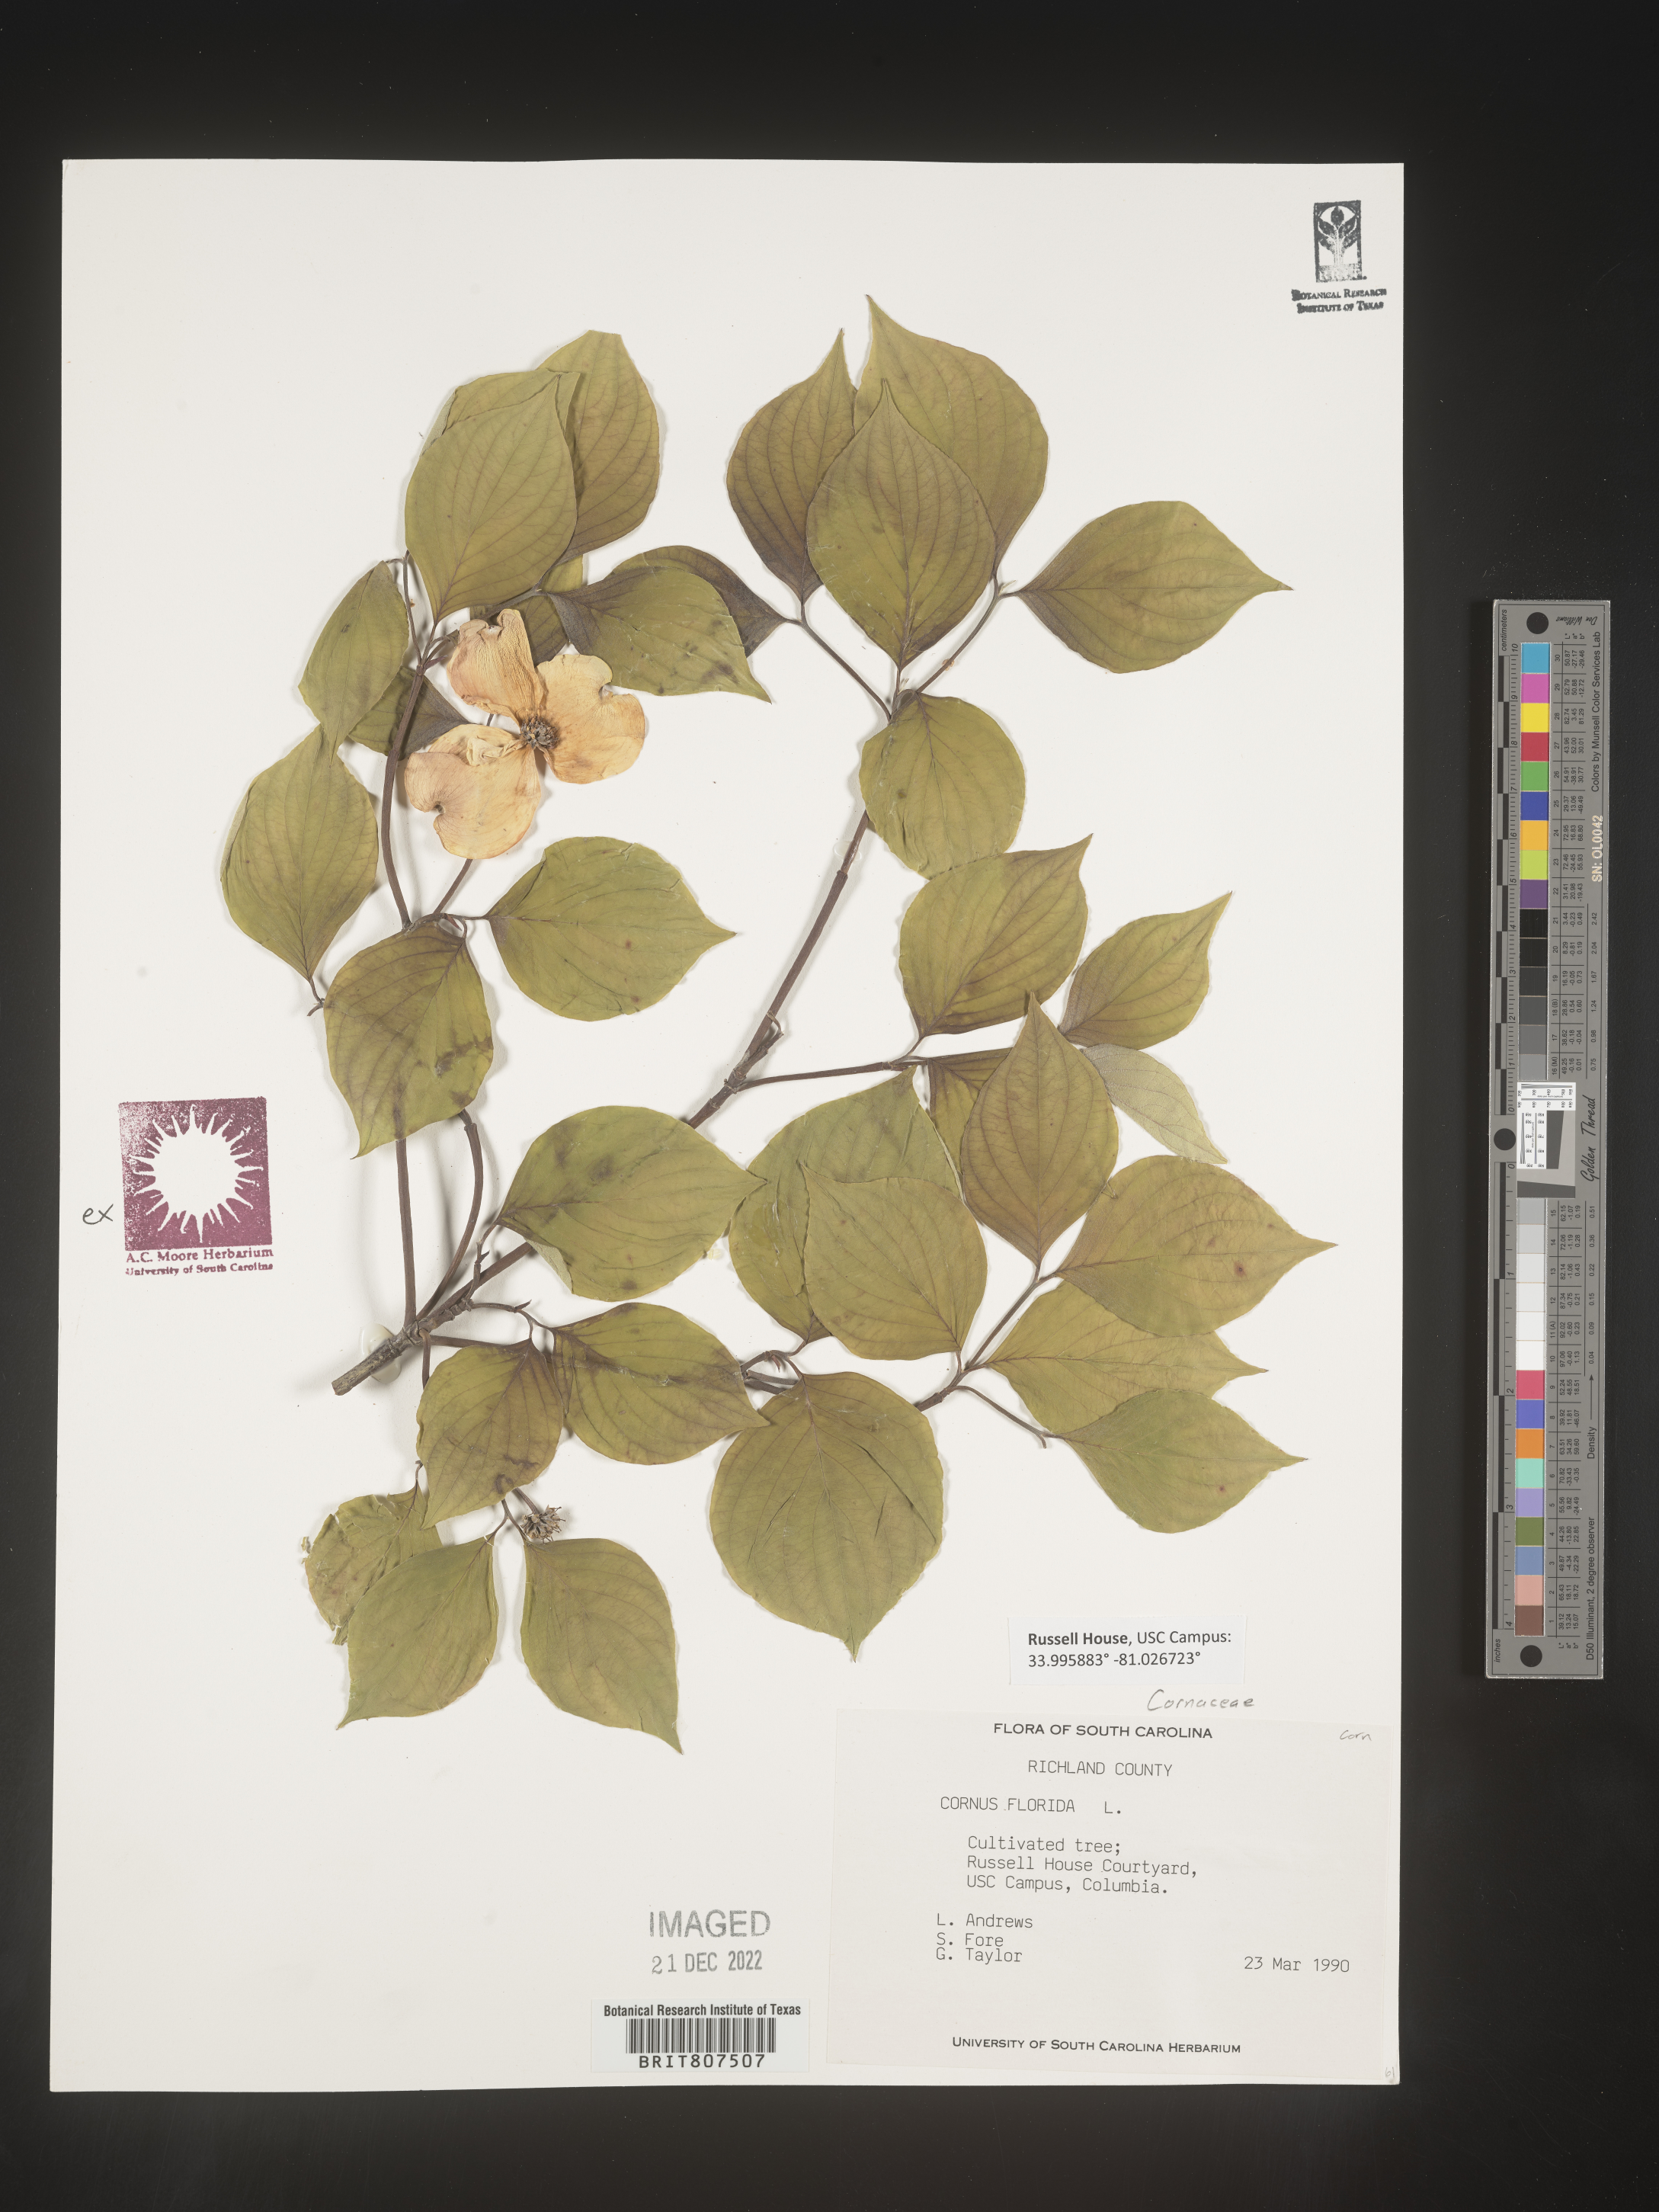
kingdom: Plantae
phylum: Tracheophyta
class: Magnoliopsida
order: Cornales
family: Cornaceae
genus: Cornus
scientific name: Cornus florida
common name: Flowering dogwood
